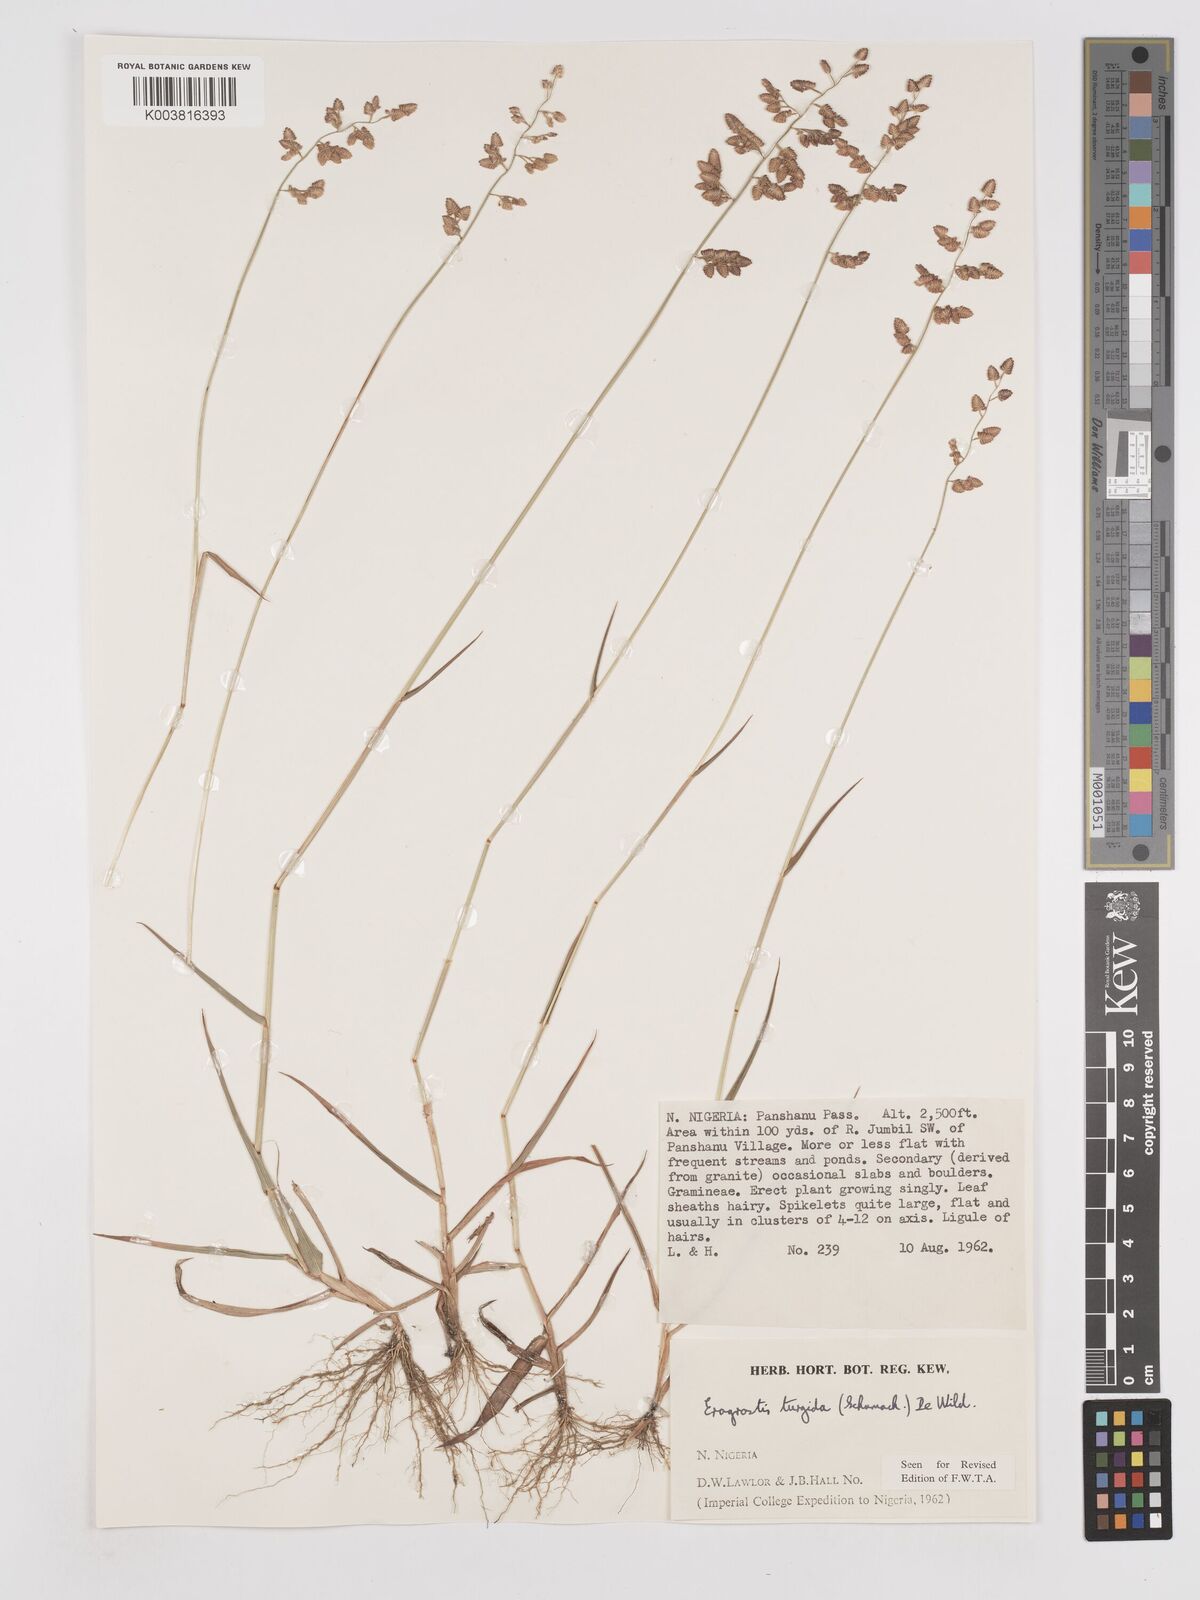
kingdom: Plantae
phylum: Tracheophyta
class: Liliopsida
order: Poales
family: Poaceae
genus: Eragrostis
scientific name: Eragrostis turgida
